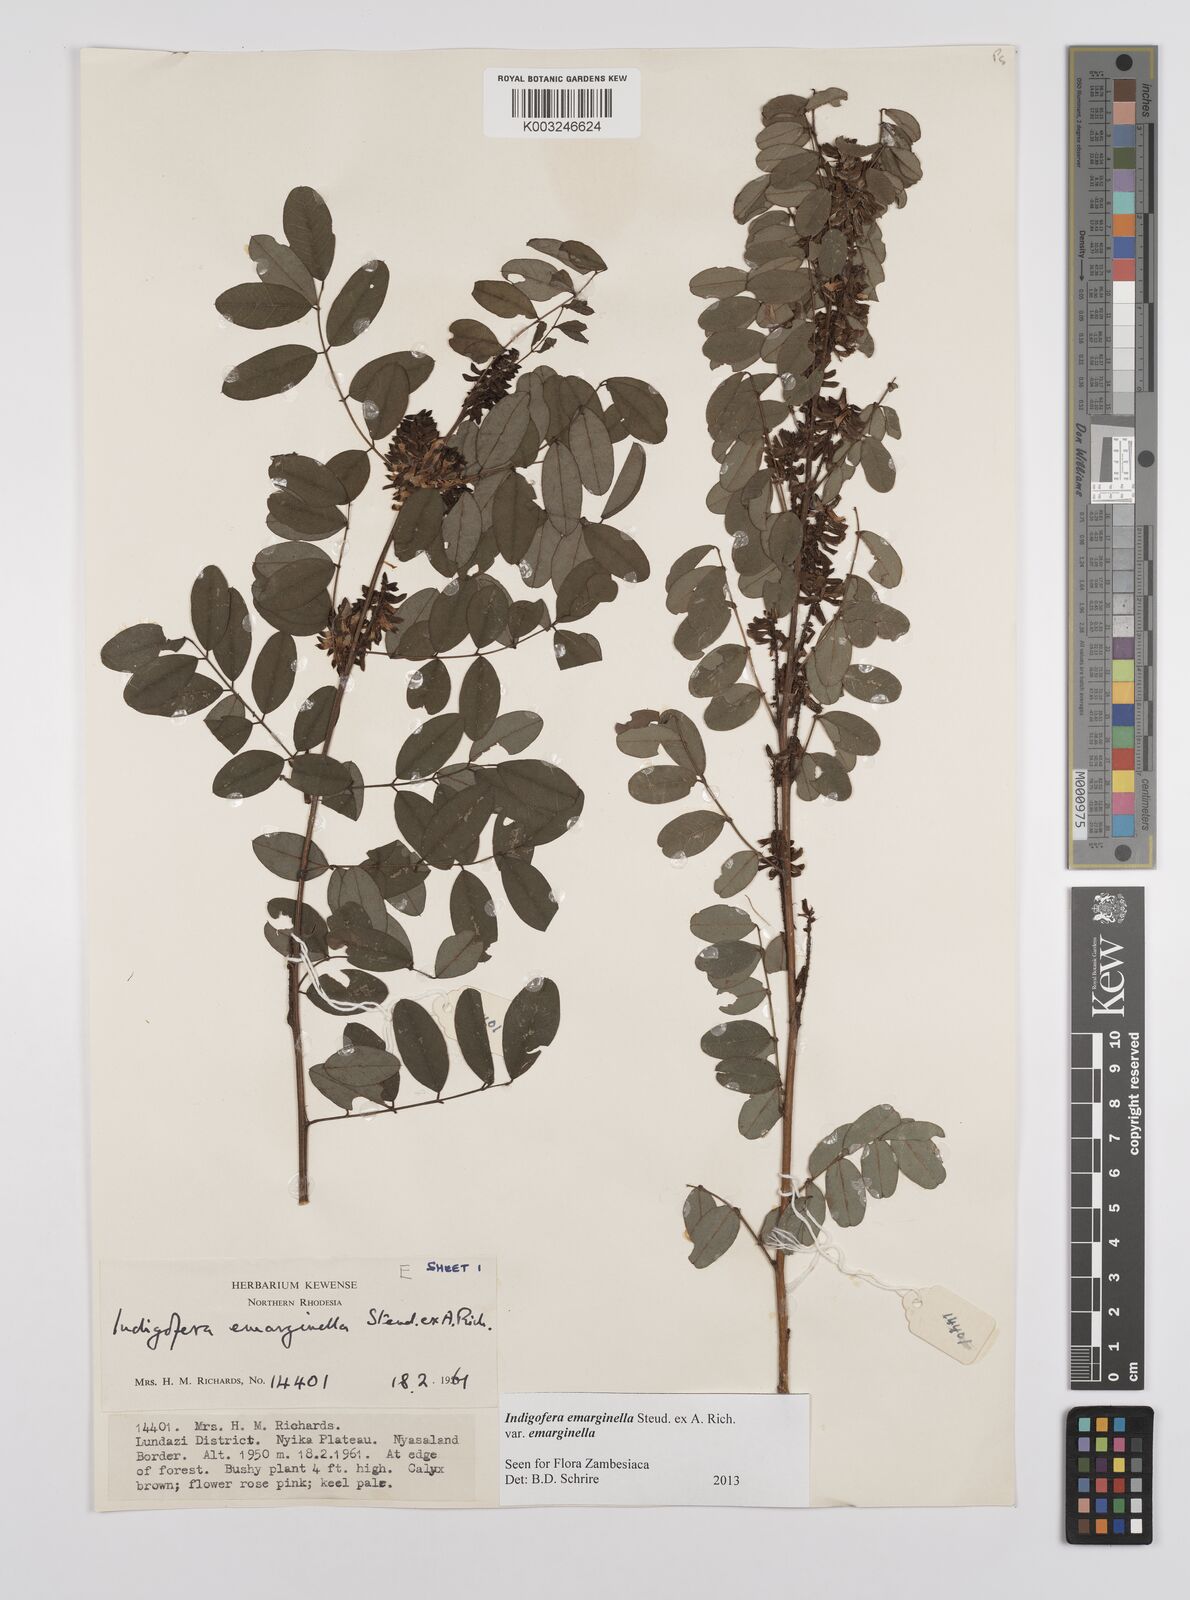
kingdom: Plantae
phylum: Tracheophyta
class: Magnoliopsida
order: Fabales
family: Fabaceae
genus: Indigofera
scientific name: Indigofera emarginella
